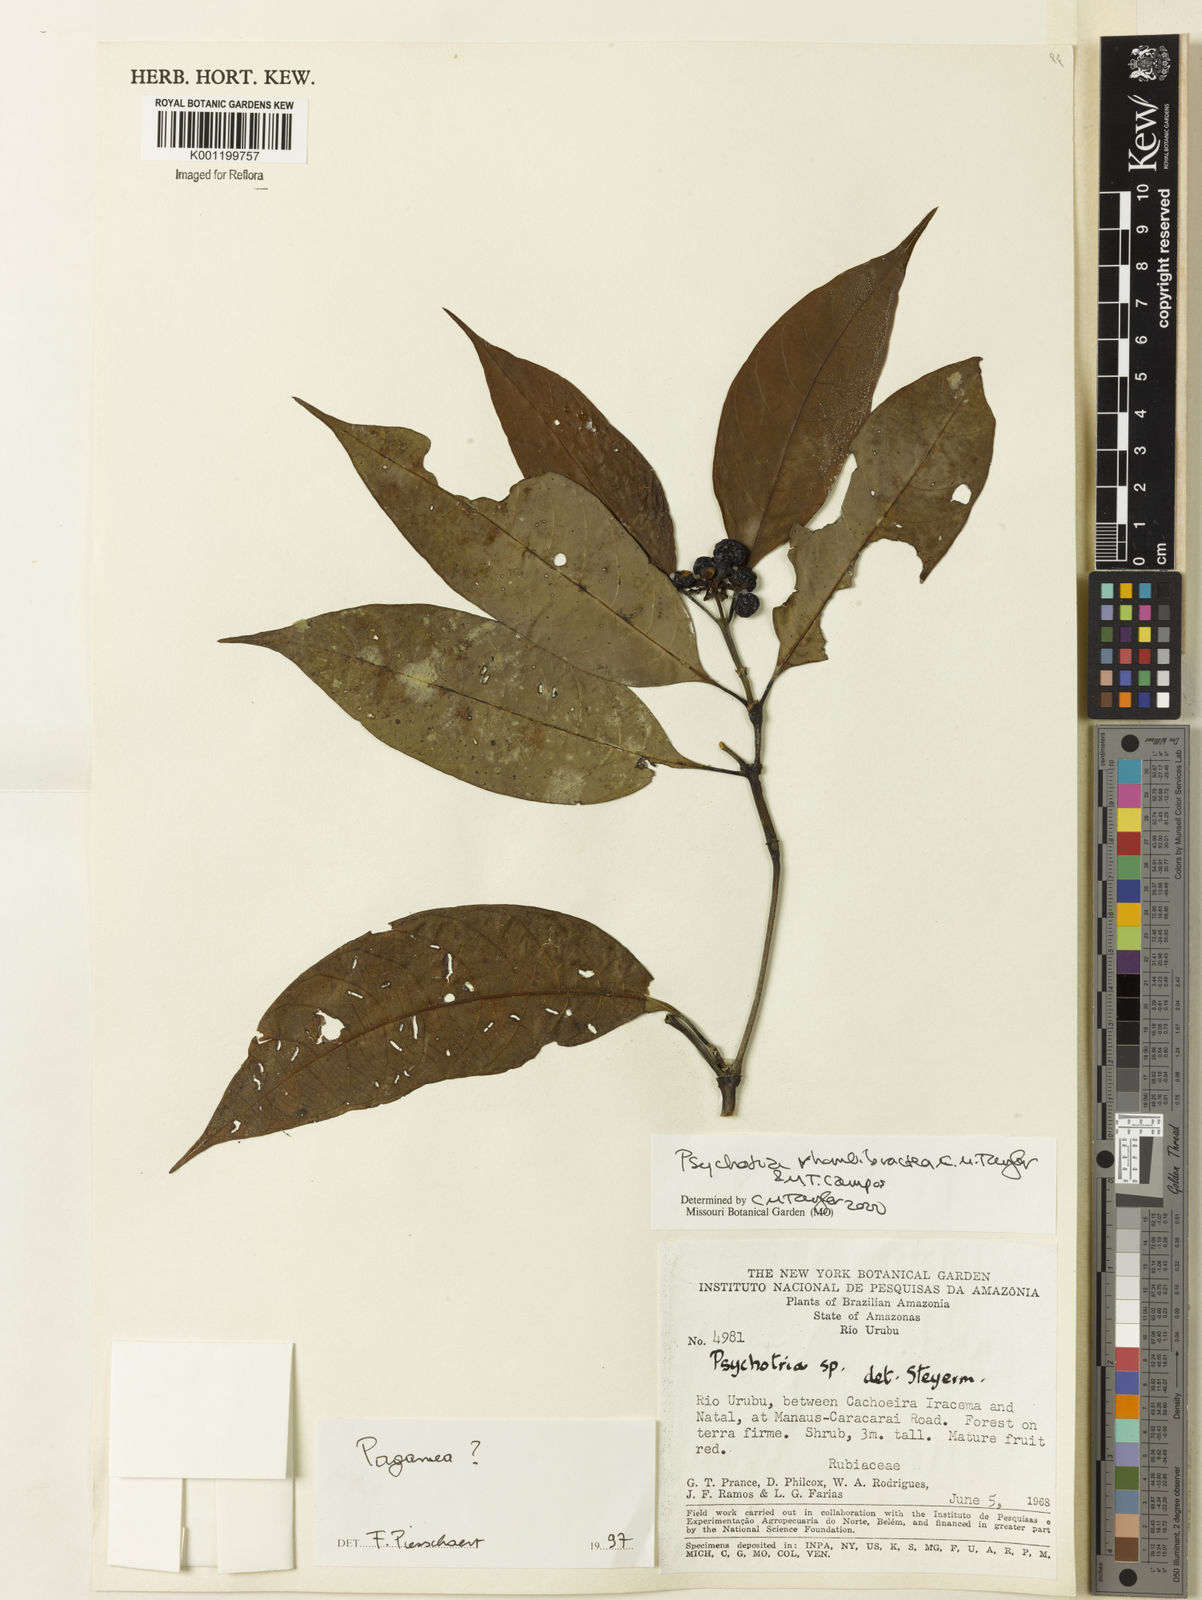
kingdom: Plantae
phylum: Tracheophyta
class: Magnoliopsida
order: Gentianales
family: Rubiaceae
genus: Psychotria
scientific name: Psychotria
